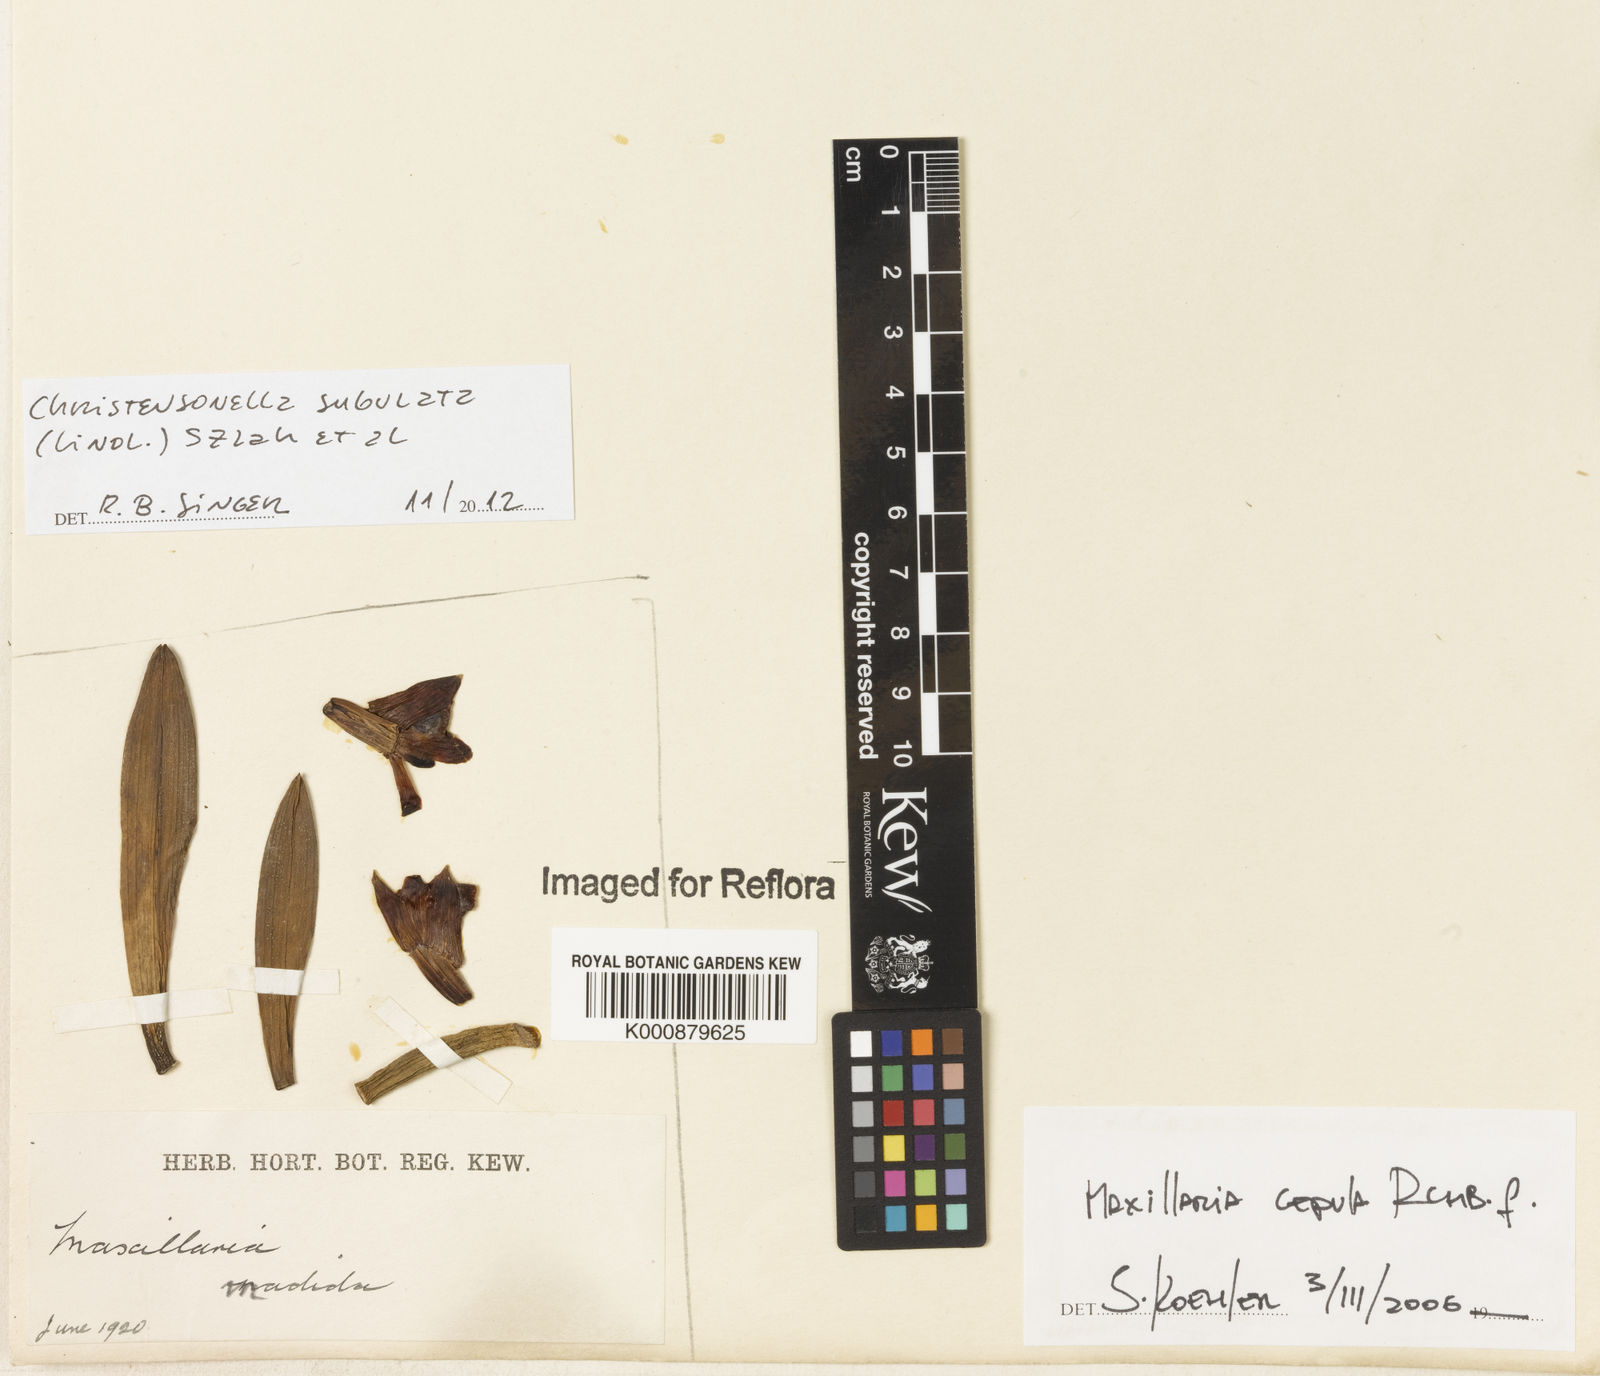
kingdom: Plantae
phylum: Tracheophyta
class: Liliopsida
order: Asparagales
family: Orchidaceae
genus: Maxillaria
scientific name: Maxillaria subulata
